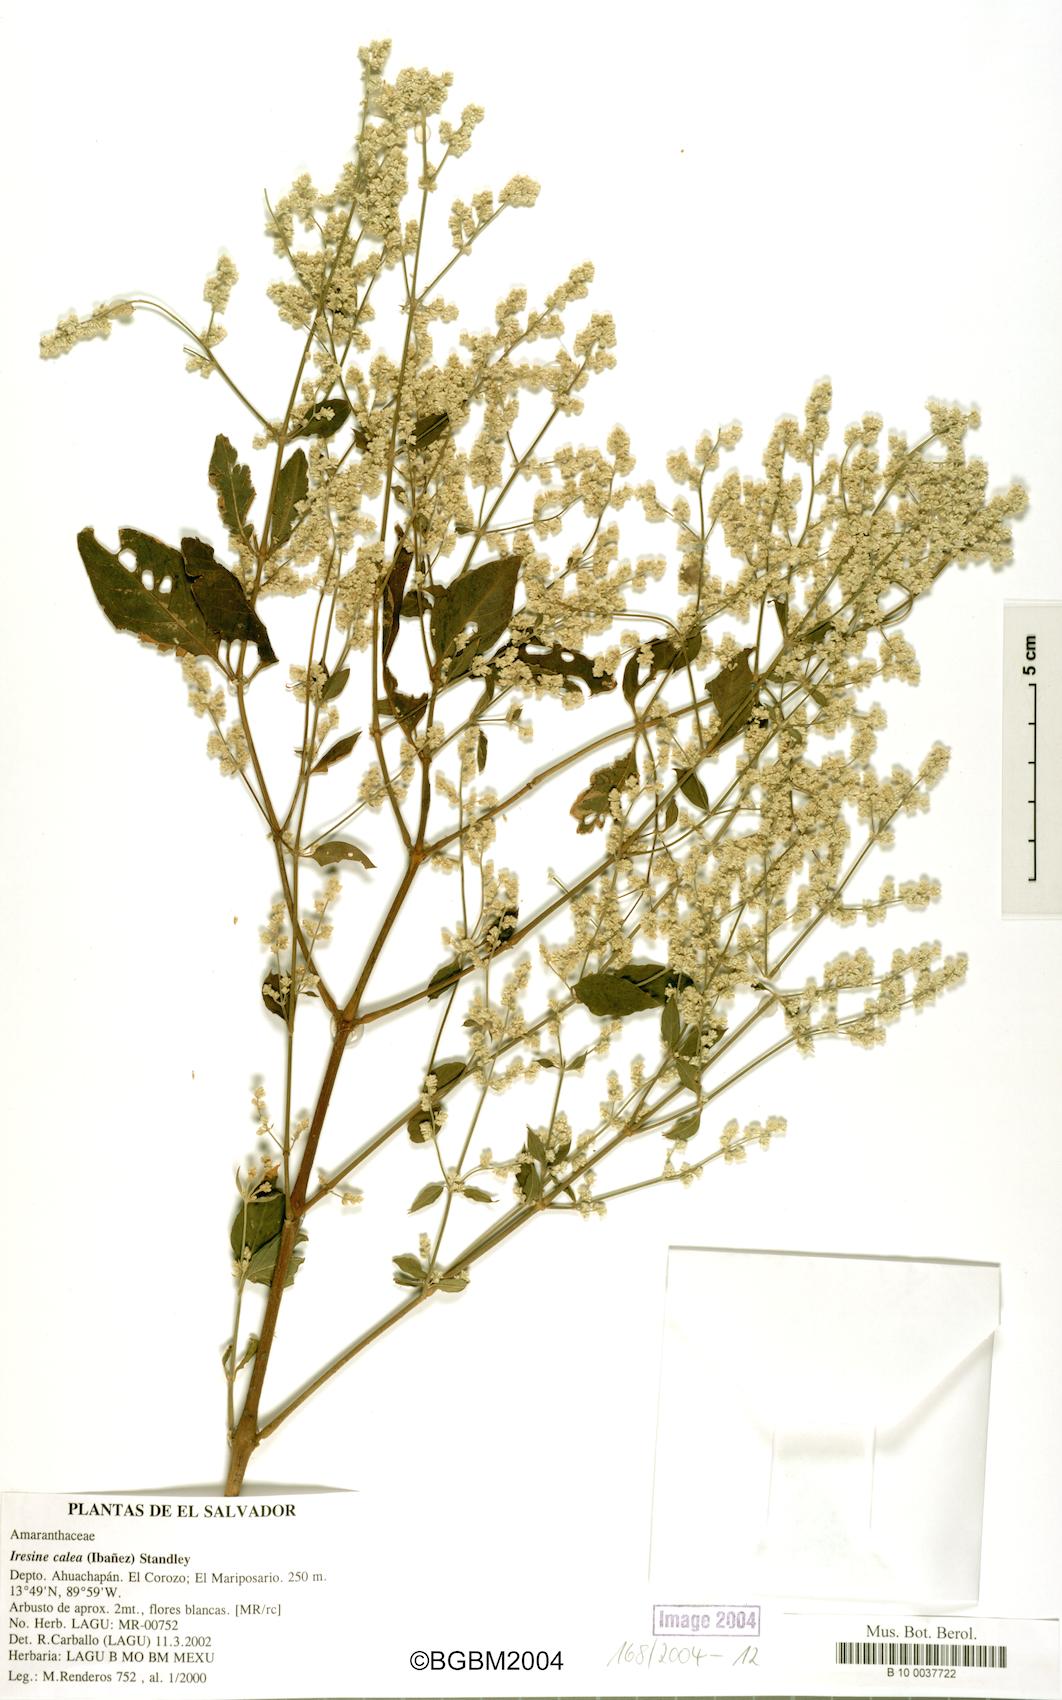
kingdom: Plantae
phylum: Tracheophyta
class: Magnoliopsida
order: Caryophyllales
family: Amaranthaceae
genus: Iresine
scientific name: Iresine latifolia
